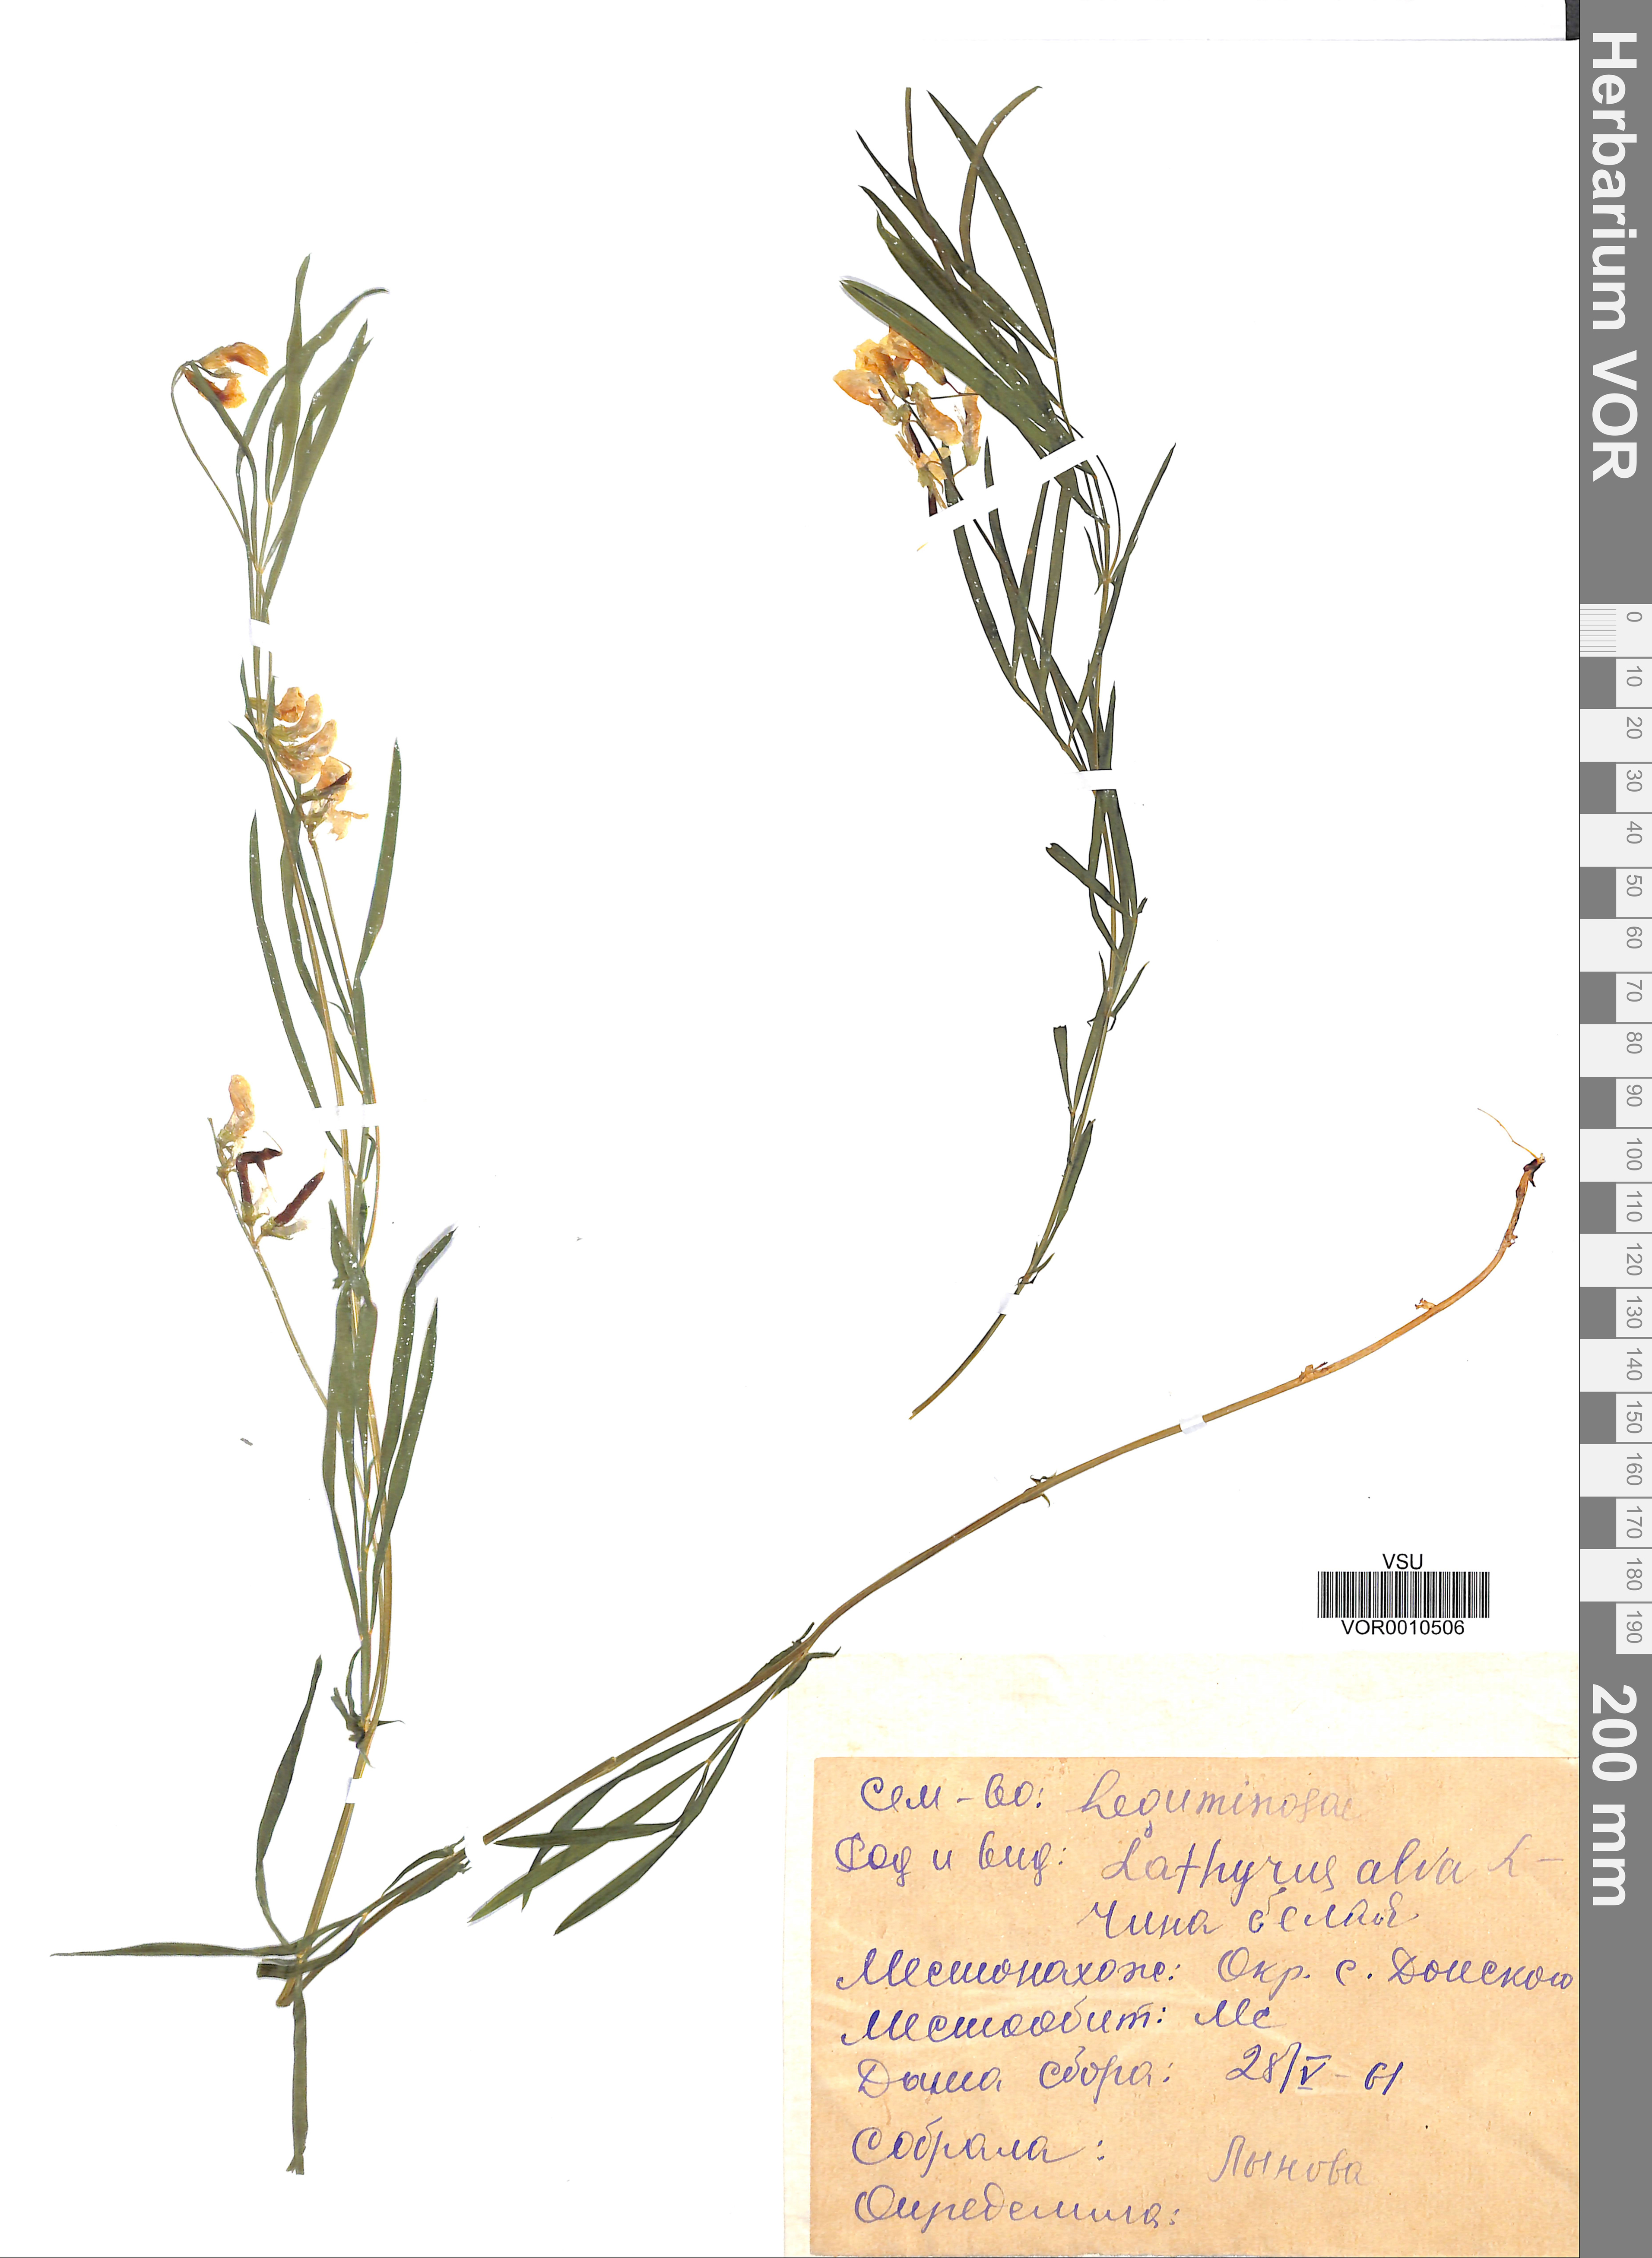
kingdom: Plantae
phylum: Tracheophyta
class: Magnoliopsida
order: Fabales
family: Fabaceae
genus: Lathyrus
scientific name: Lathyrus pannonicus
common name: Pea
